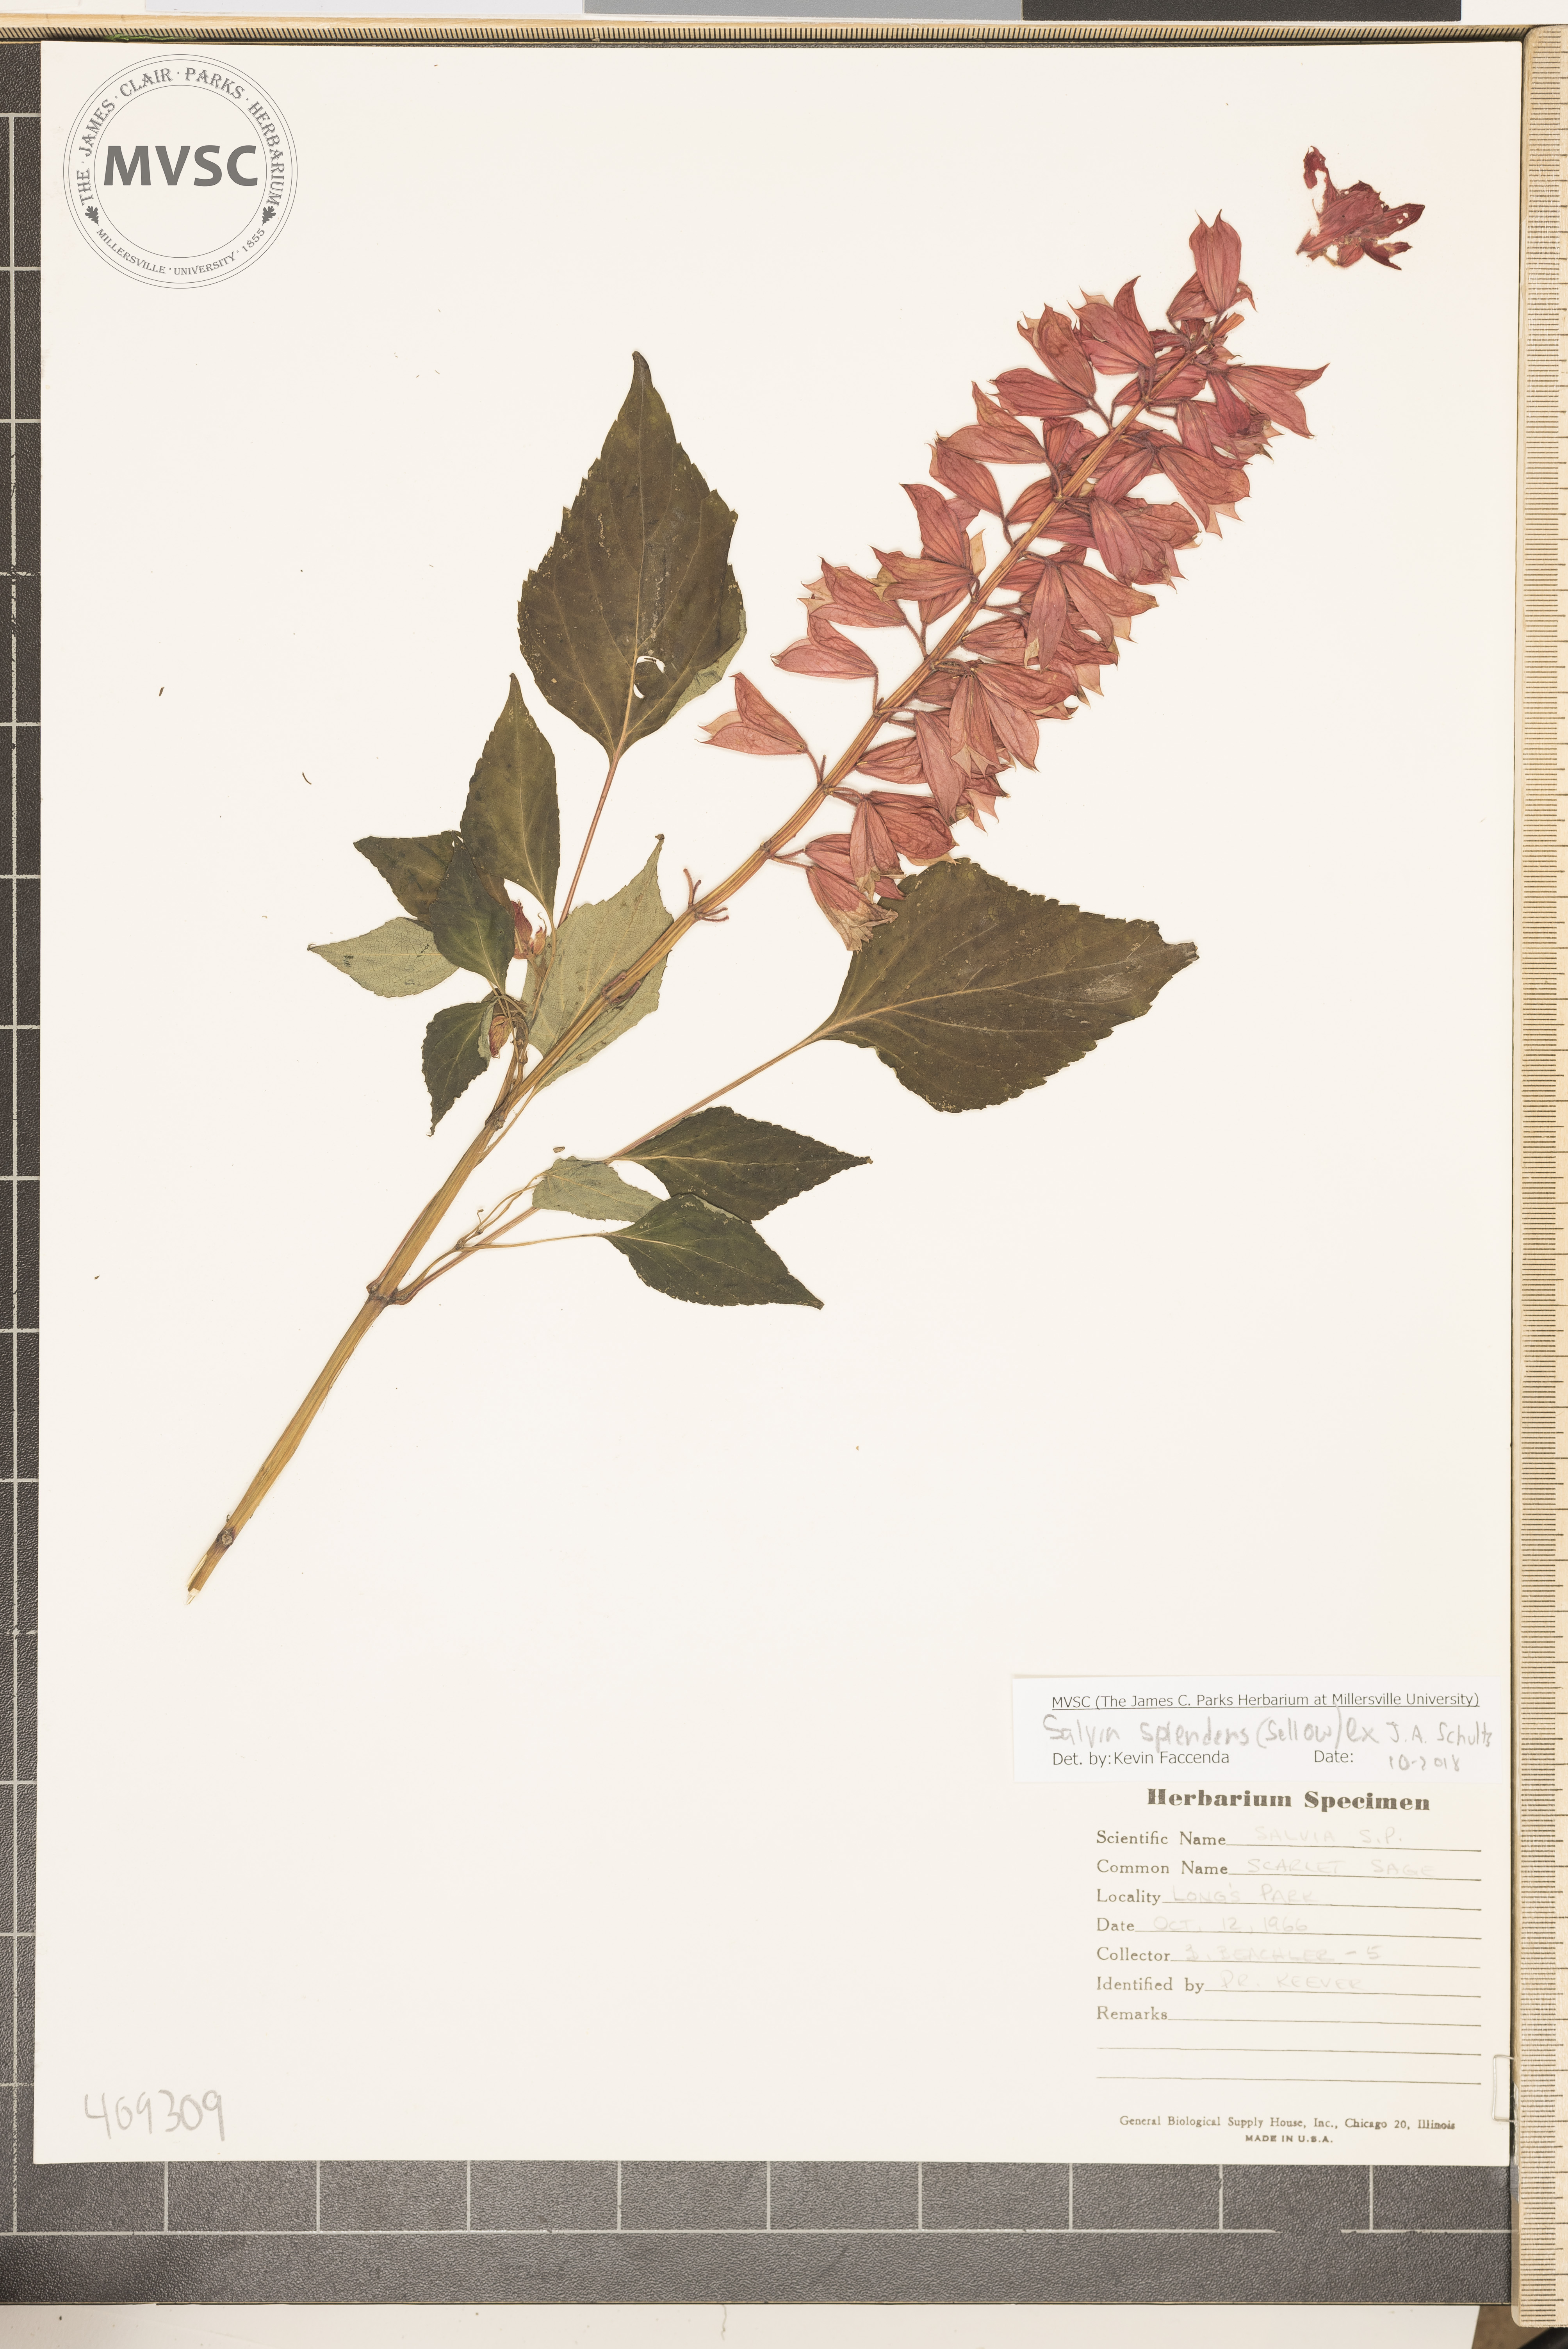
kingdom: Plantae
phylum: Tracheophyta
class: Magnoliopsida
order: Lamiales
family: Lamiaceae
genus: Salvia
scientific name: Salvia splendens
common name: Scarlet sage
